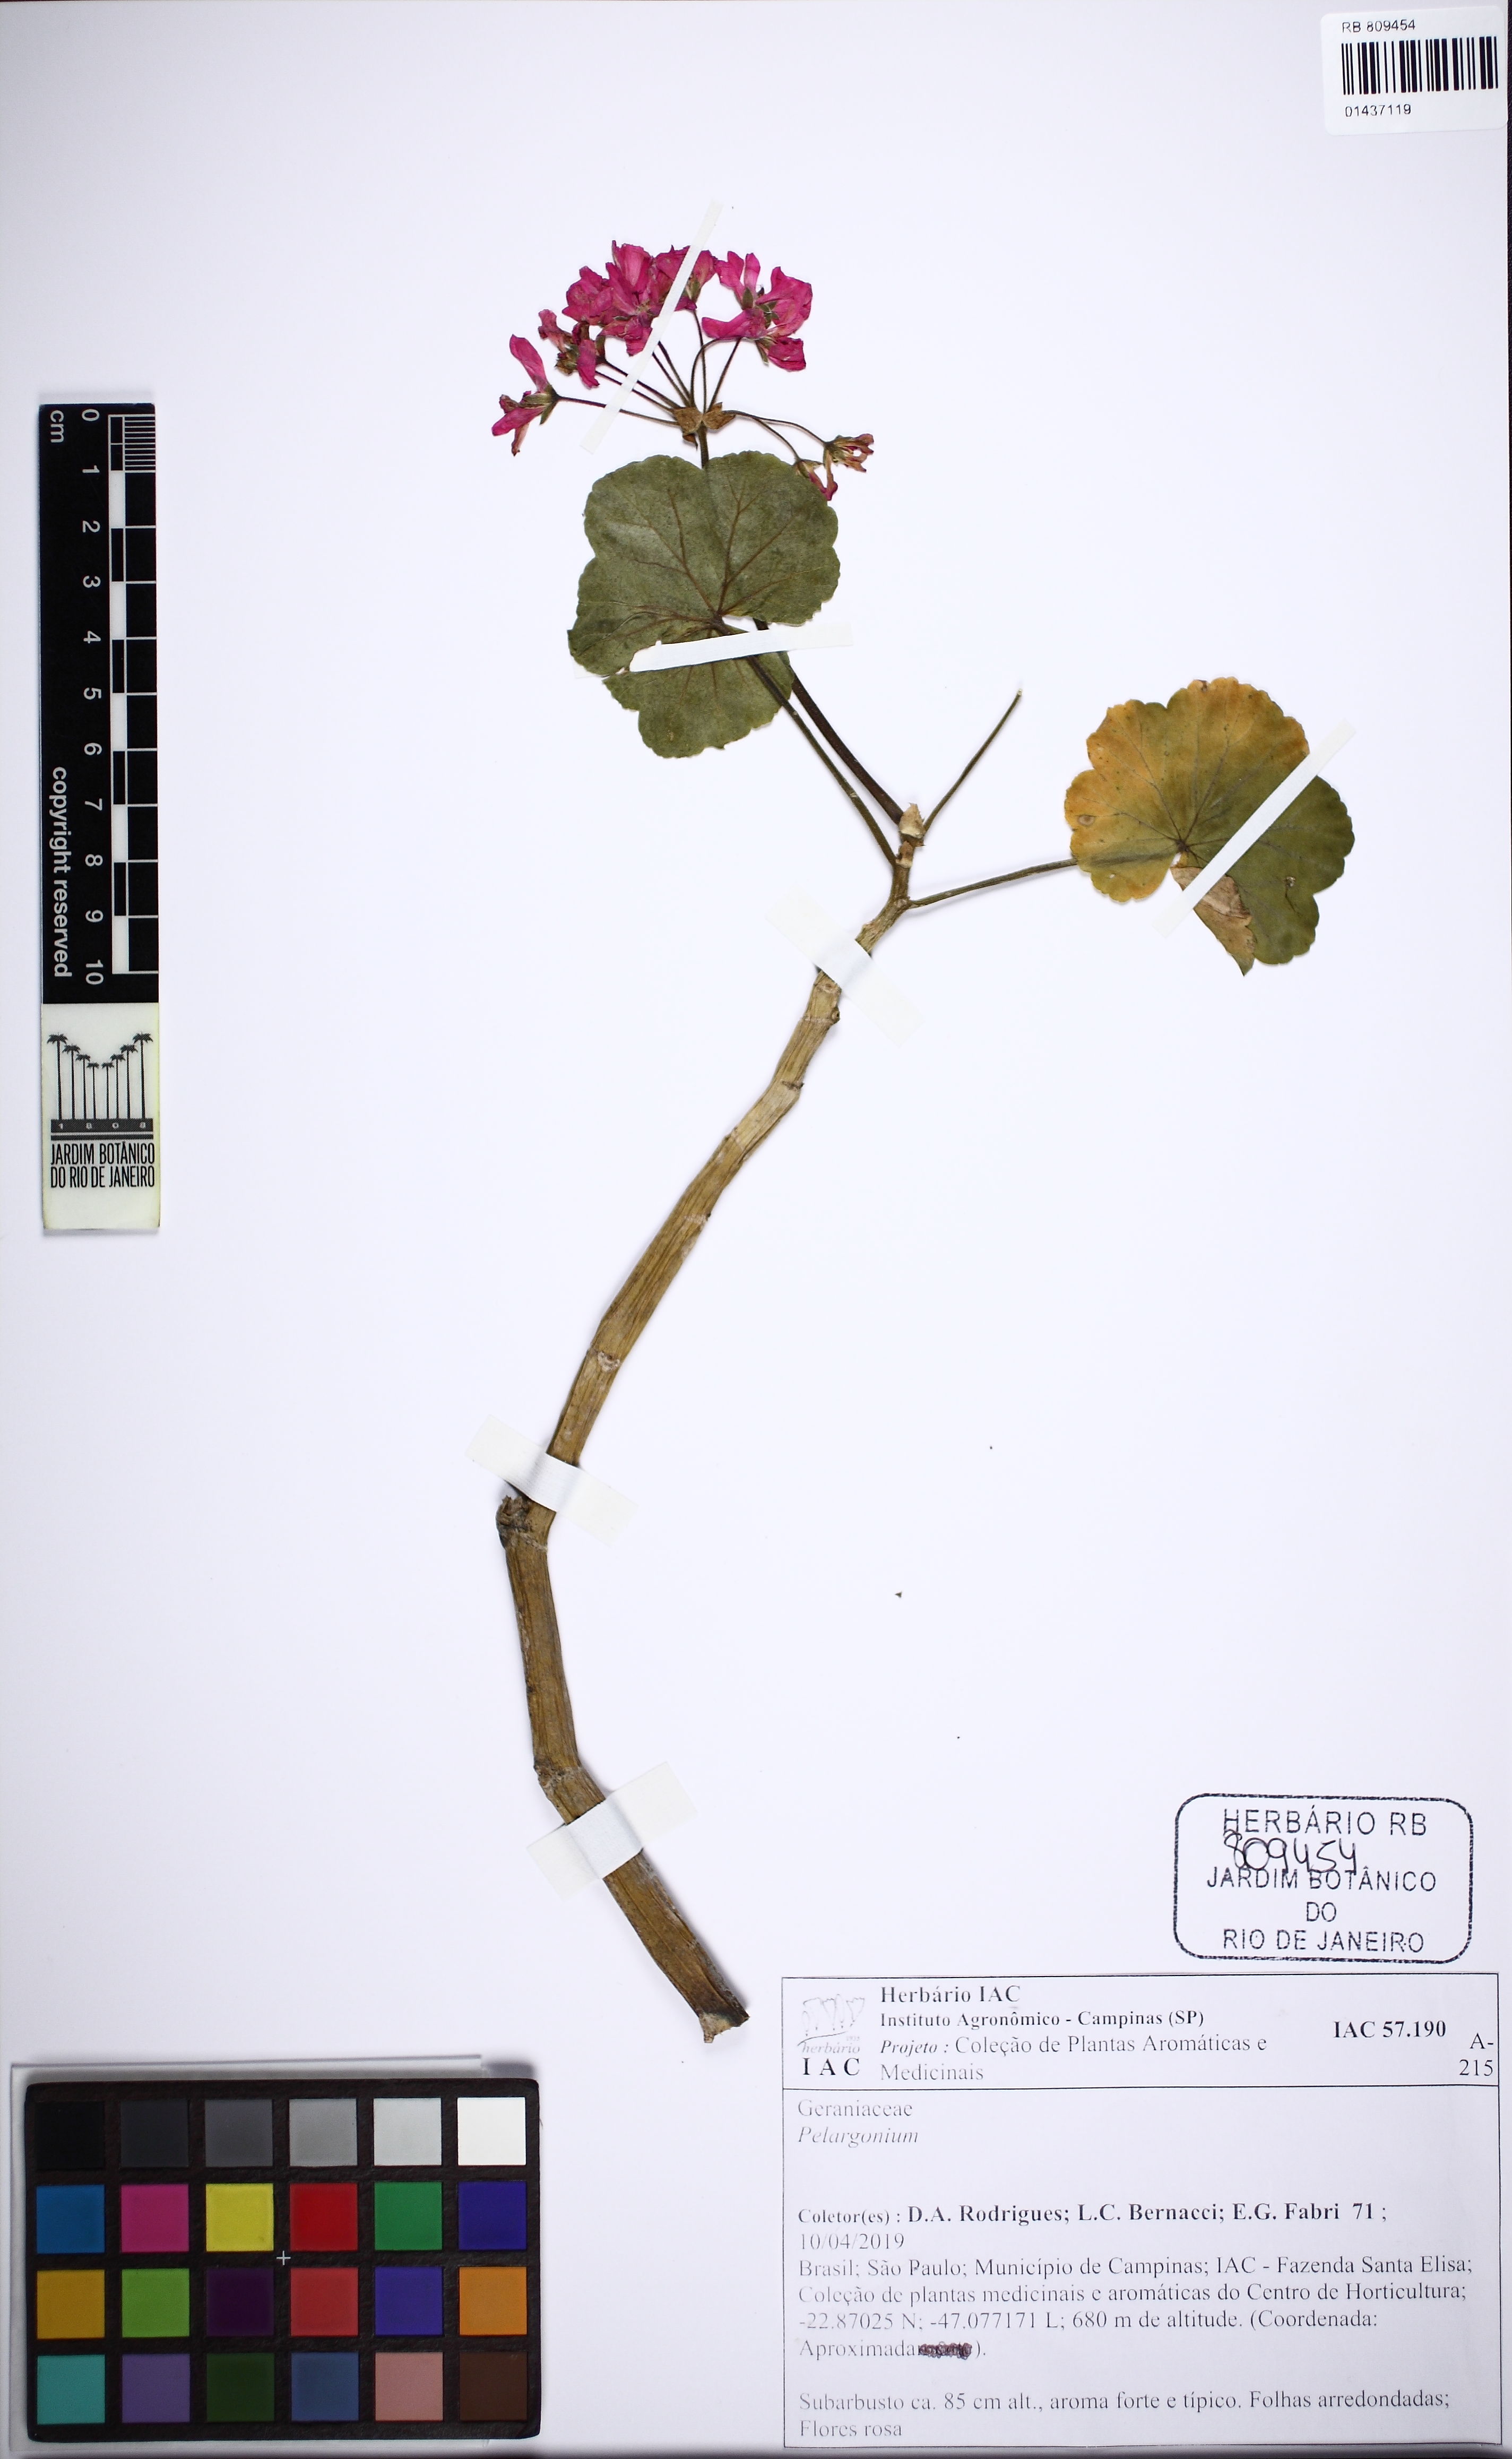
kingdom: Plantae
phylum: Tracheophyta
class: Magnoliopsida
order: Geraniales
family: Geraniaceae
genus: Pelargonium
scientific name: Pelargonium
